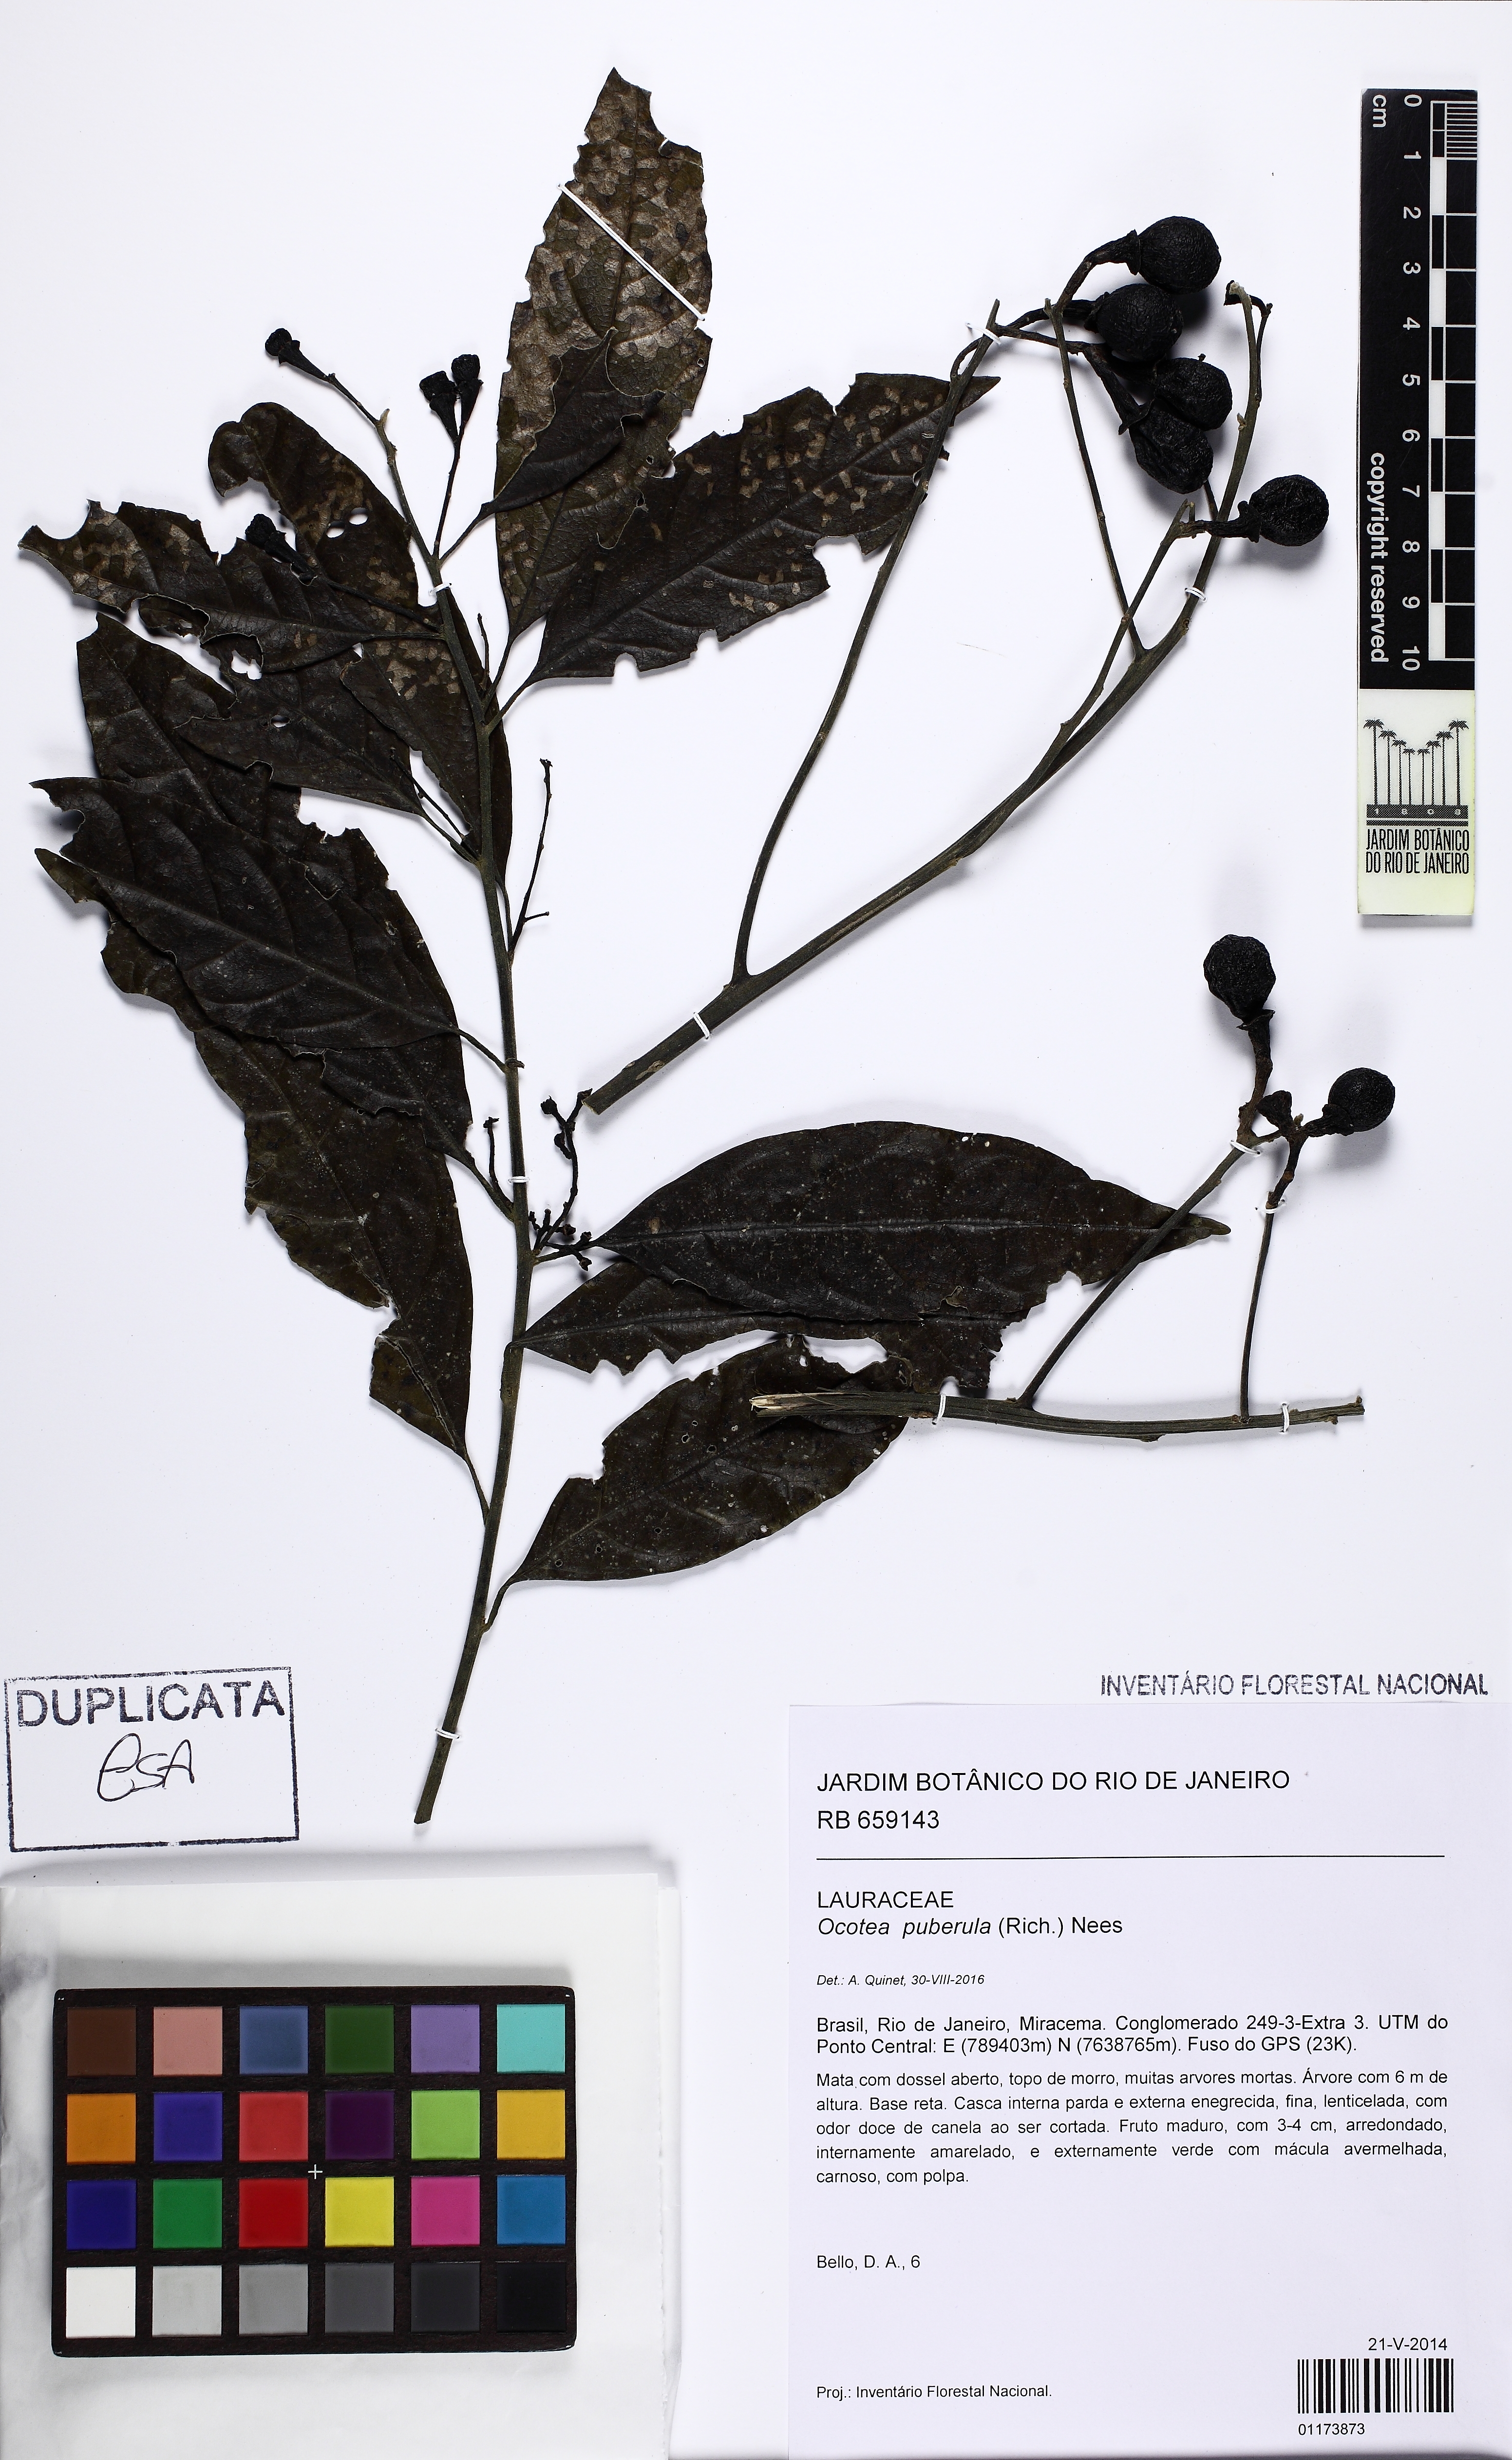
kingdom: Plantae
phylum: Tracheophyta
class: Magnoliopsida
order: Laurales
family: Lauraceae
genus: Ocotea
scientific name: Ocotea puberula
